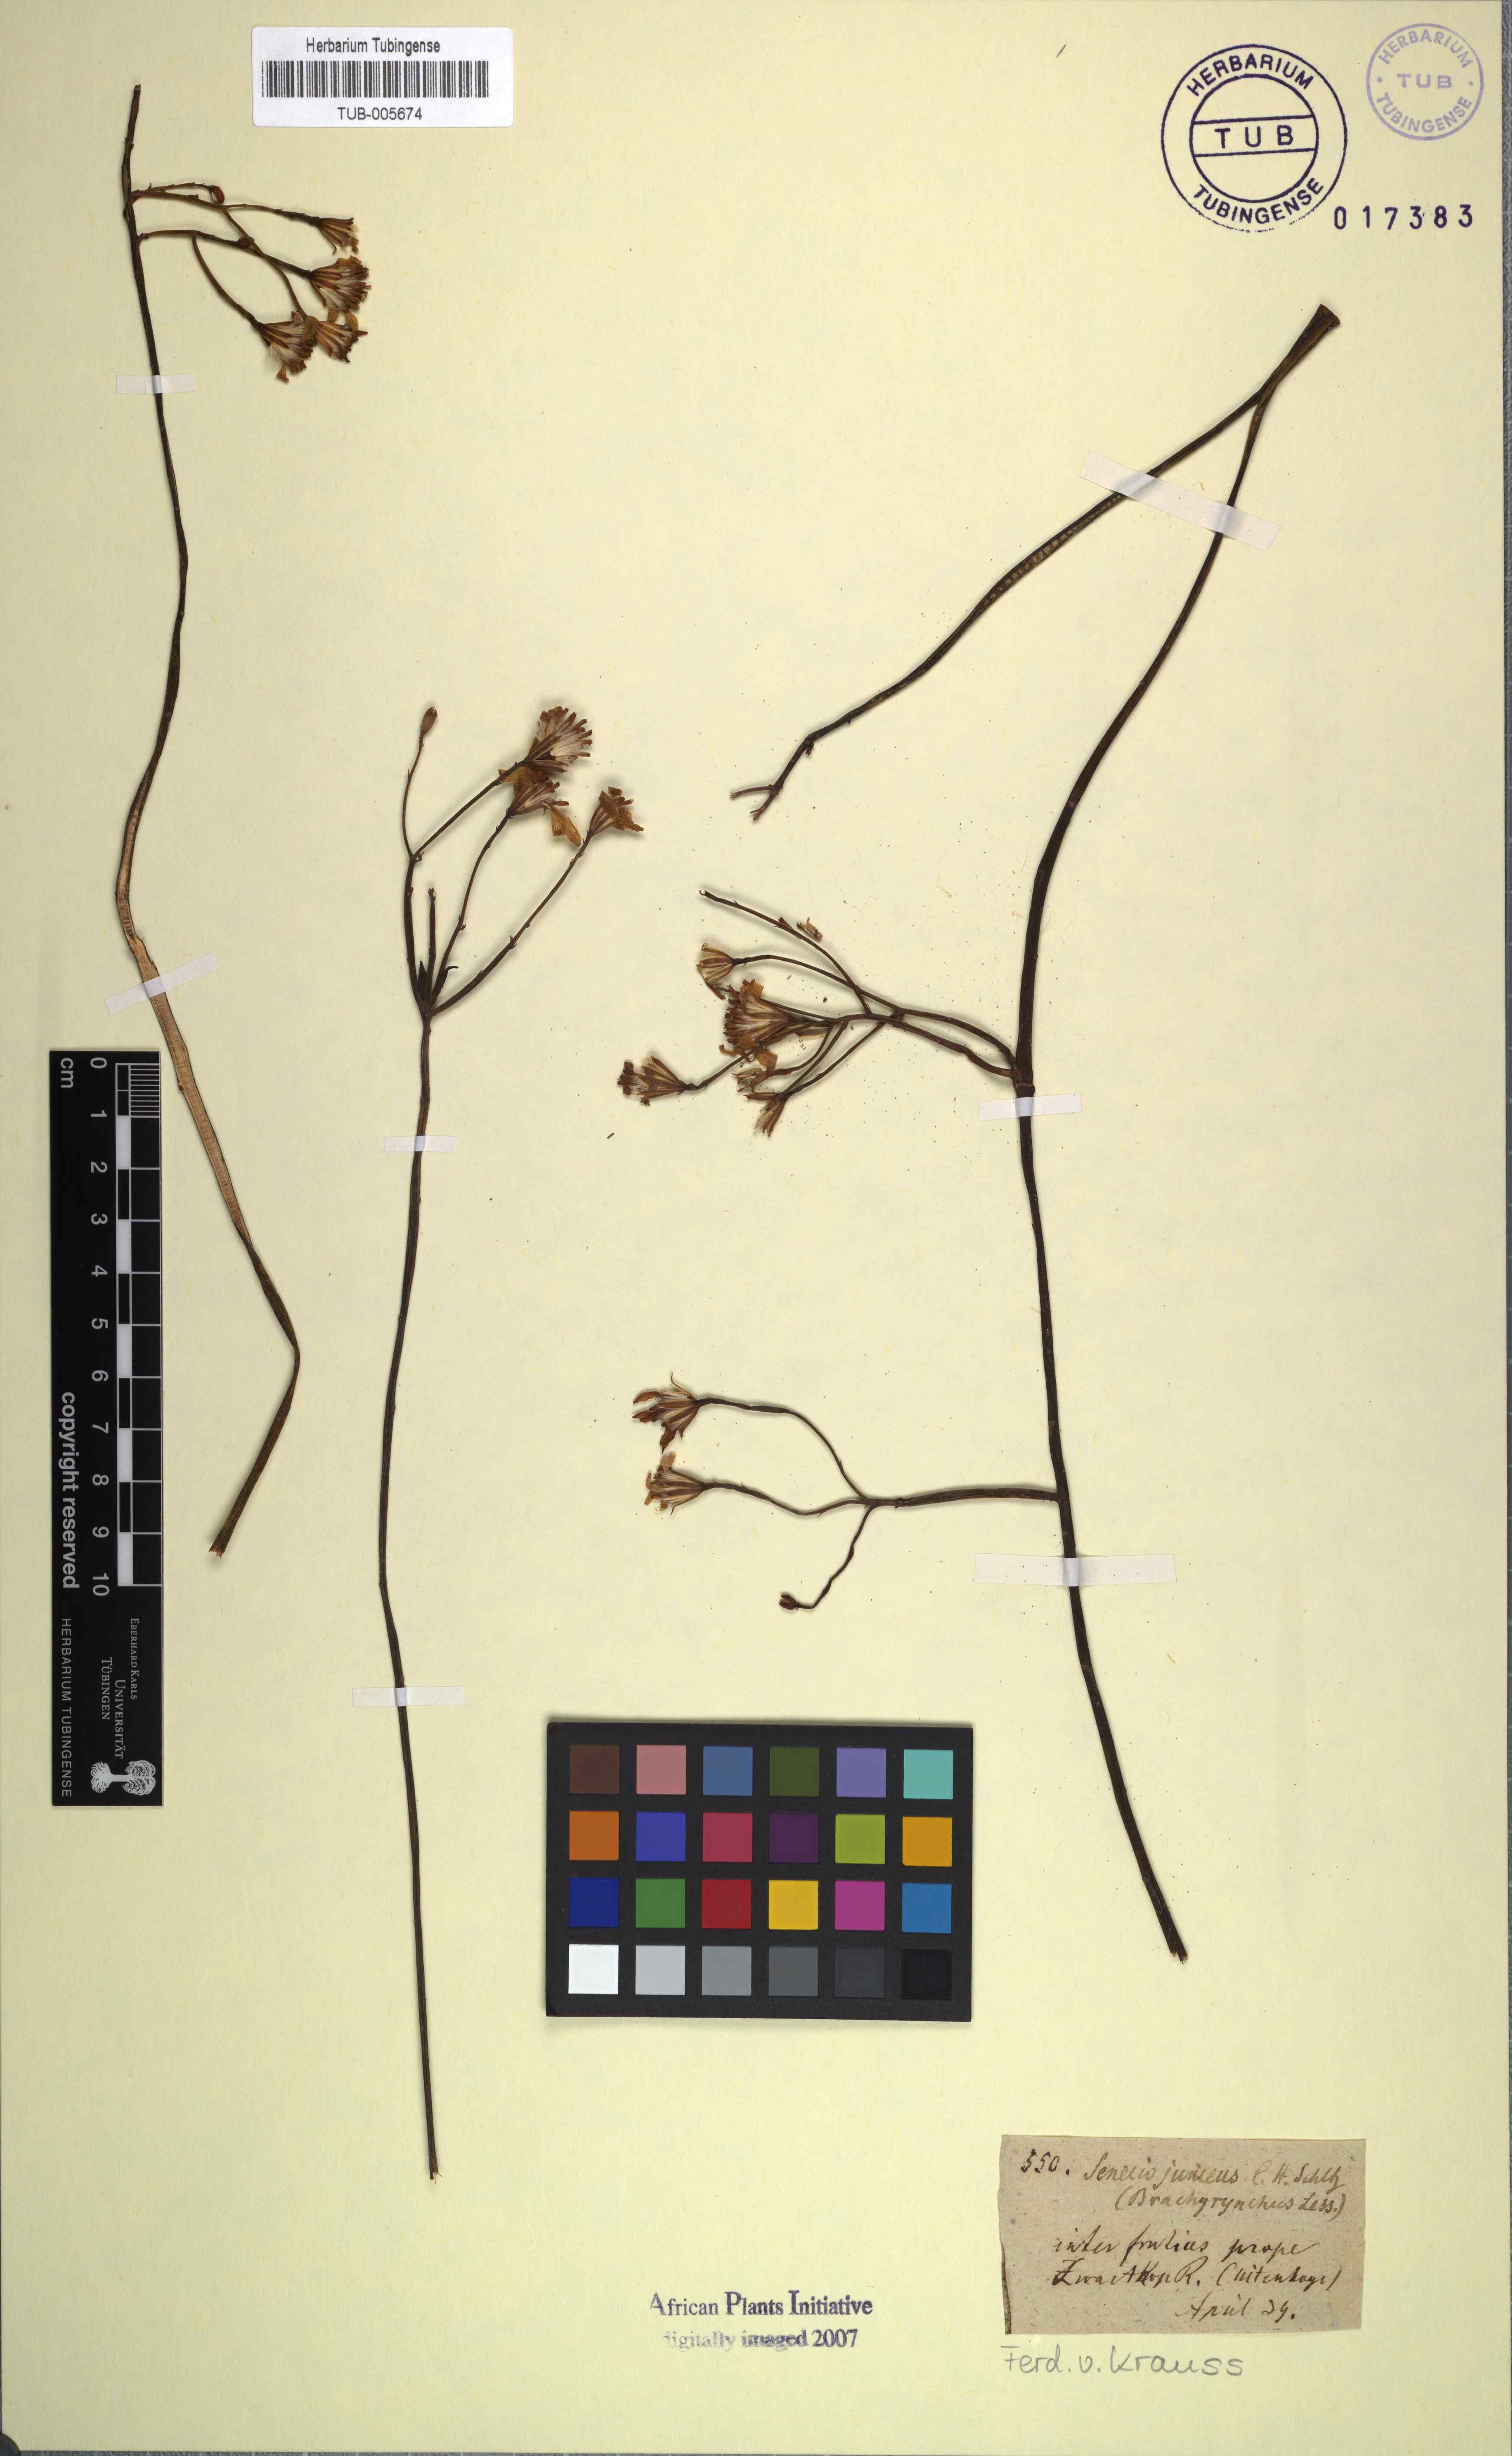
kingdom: Plantae
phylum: Tracheophyta
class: Magnoliopsida
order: Asterales
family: Asteraceae
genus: Senecio
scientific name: Senecio junceus
